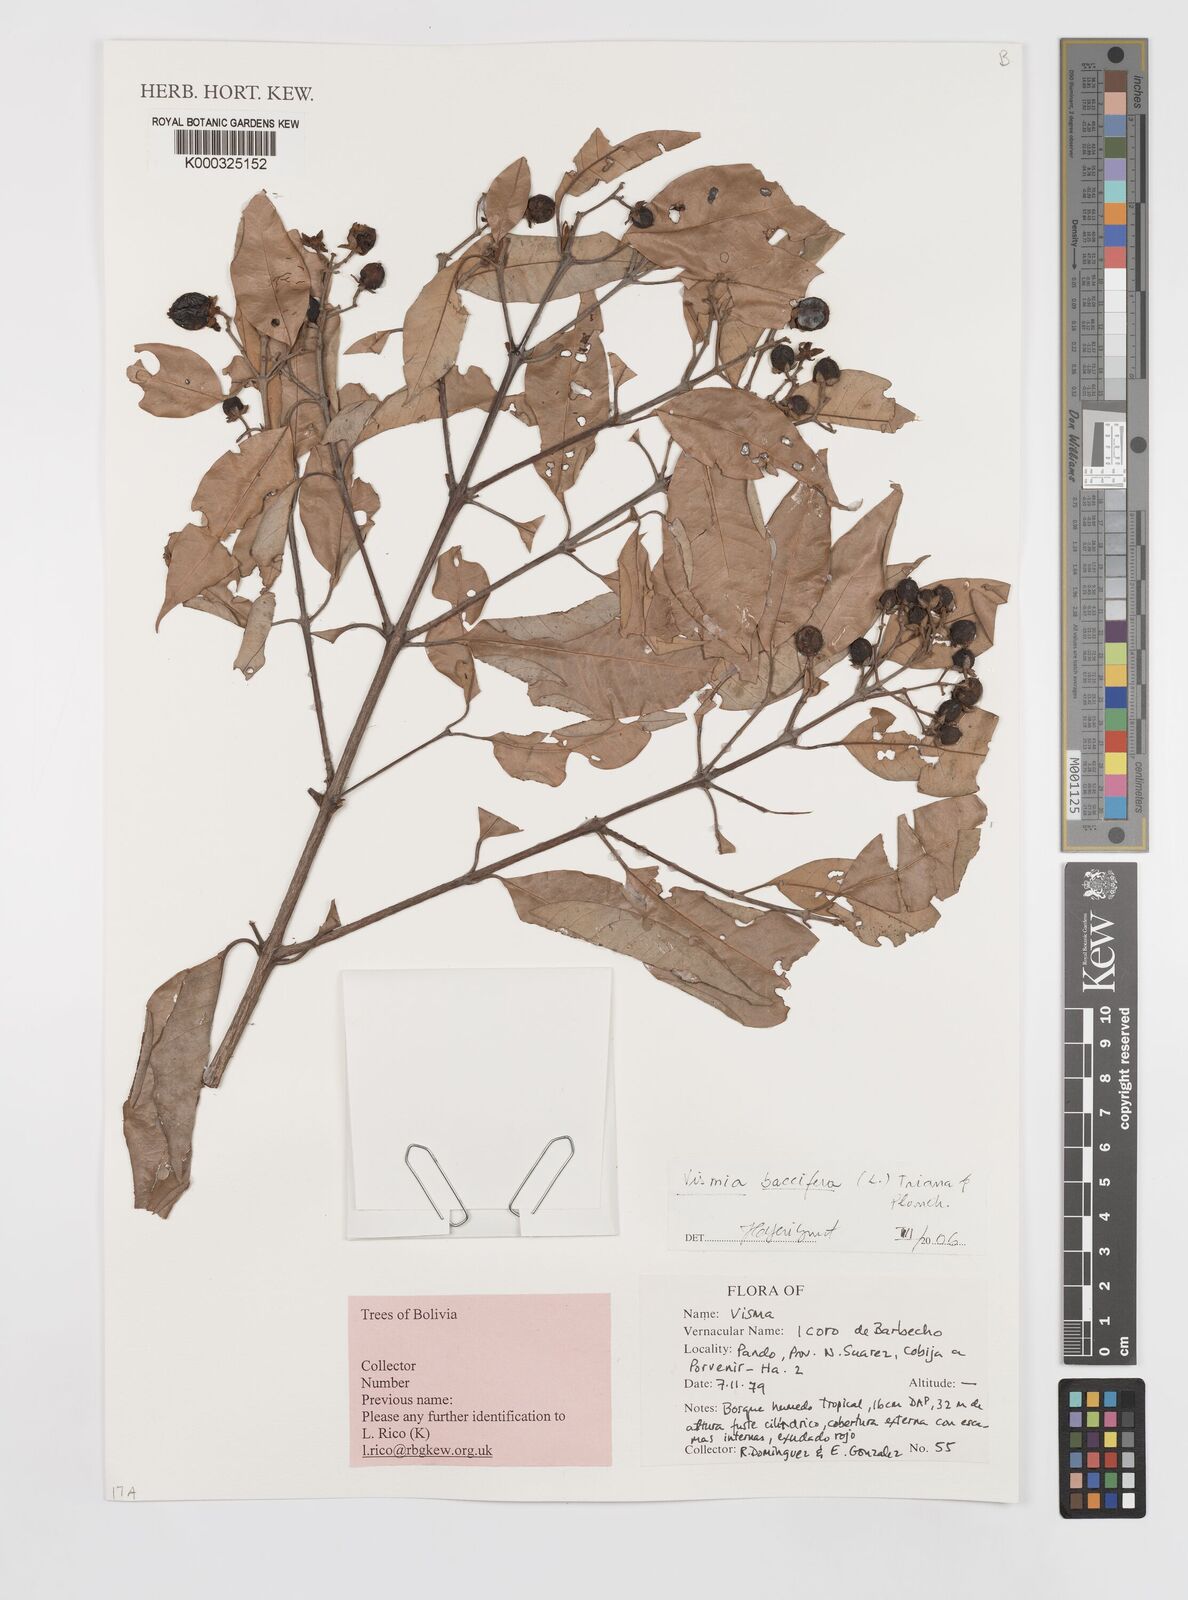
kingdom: Plantae
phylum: Tracheophyta
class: Magnoliopsida
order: Malpighiales
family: Hypericaceae
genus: Vismia
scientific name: Vismia baccifera
